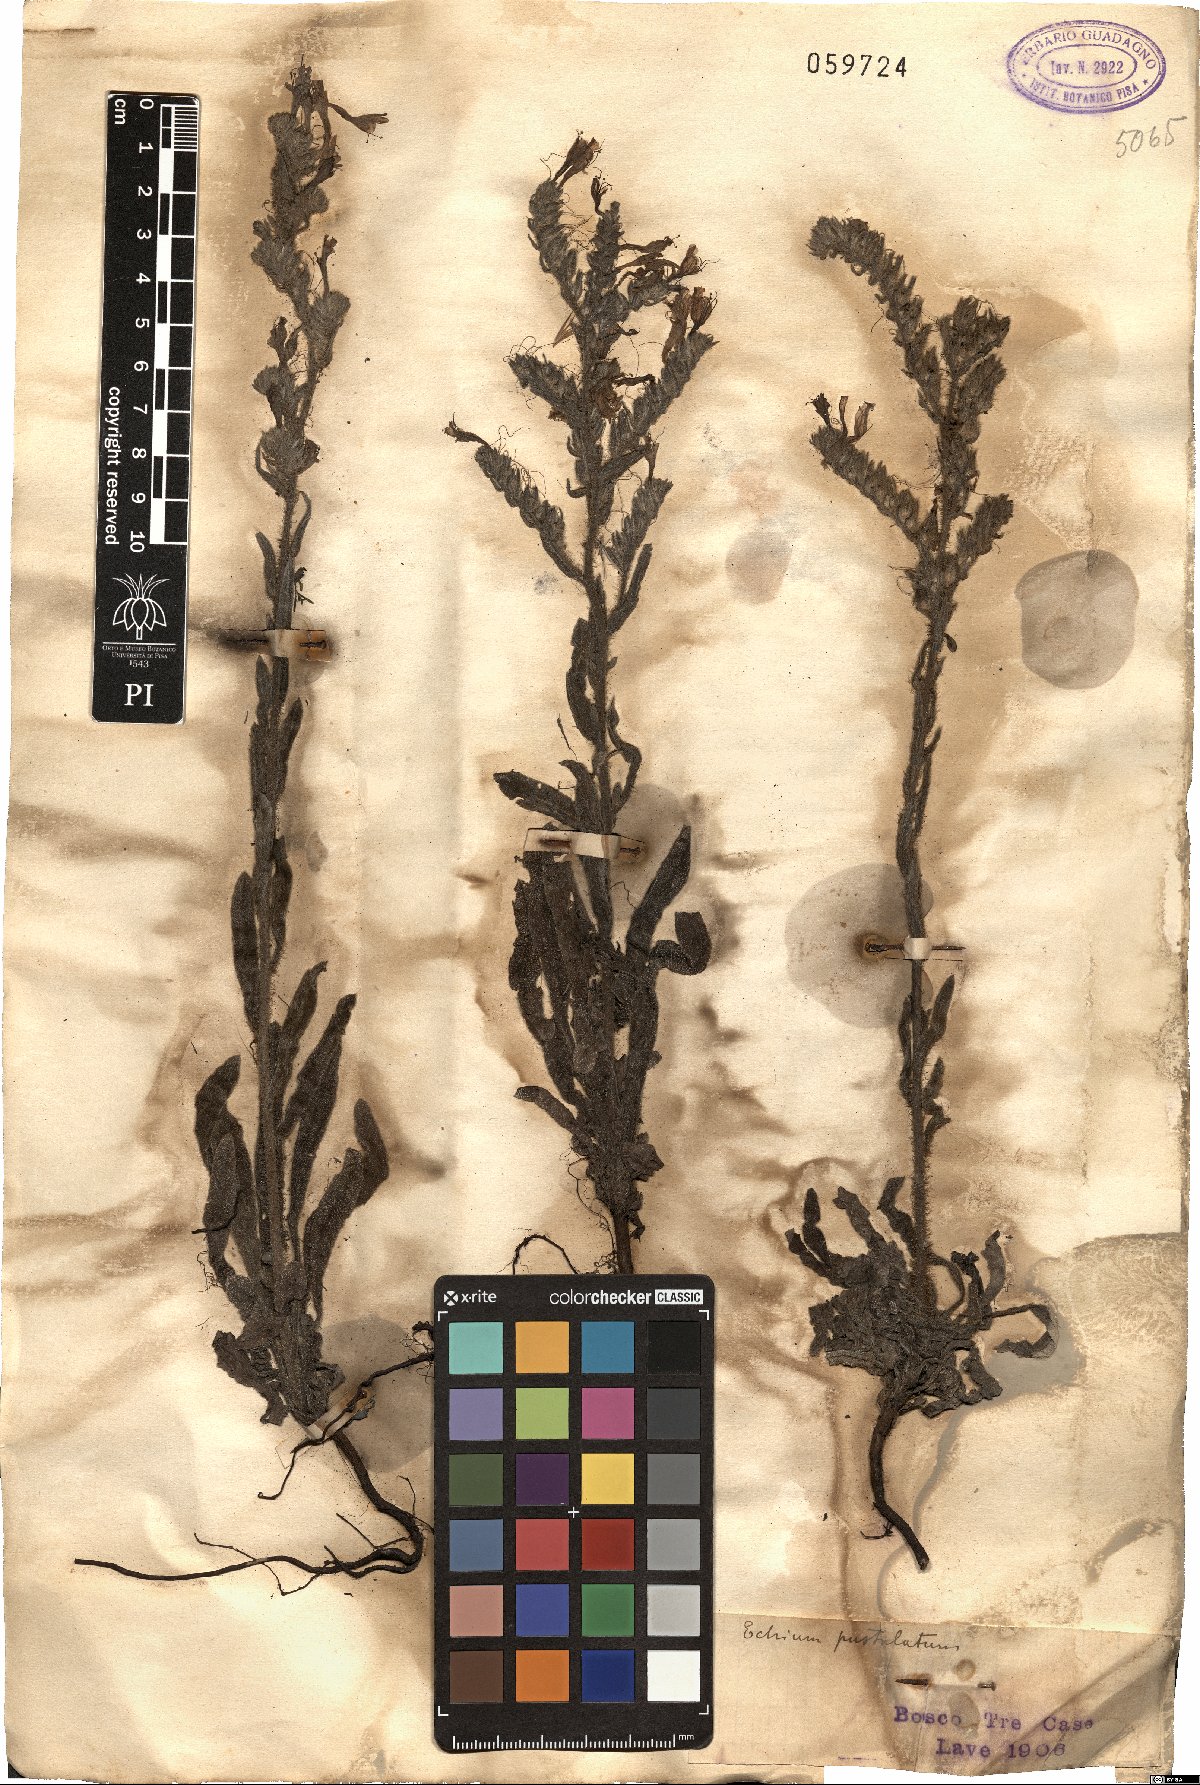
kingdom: Plantae
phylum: Tracheophyta
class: Magnoliopsida
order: Boraginales
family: Boraginaceae
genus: Echium
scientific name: Echium vulgare
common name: Common viper's bugloss
